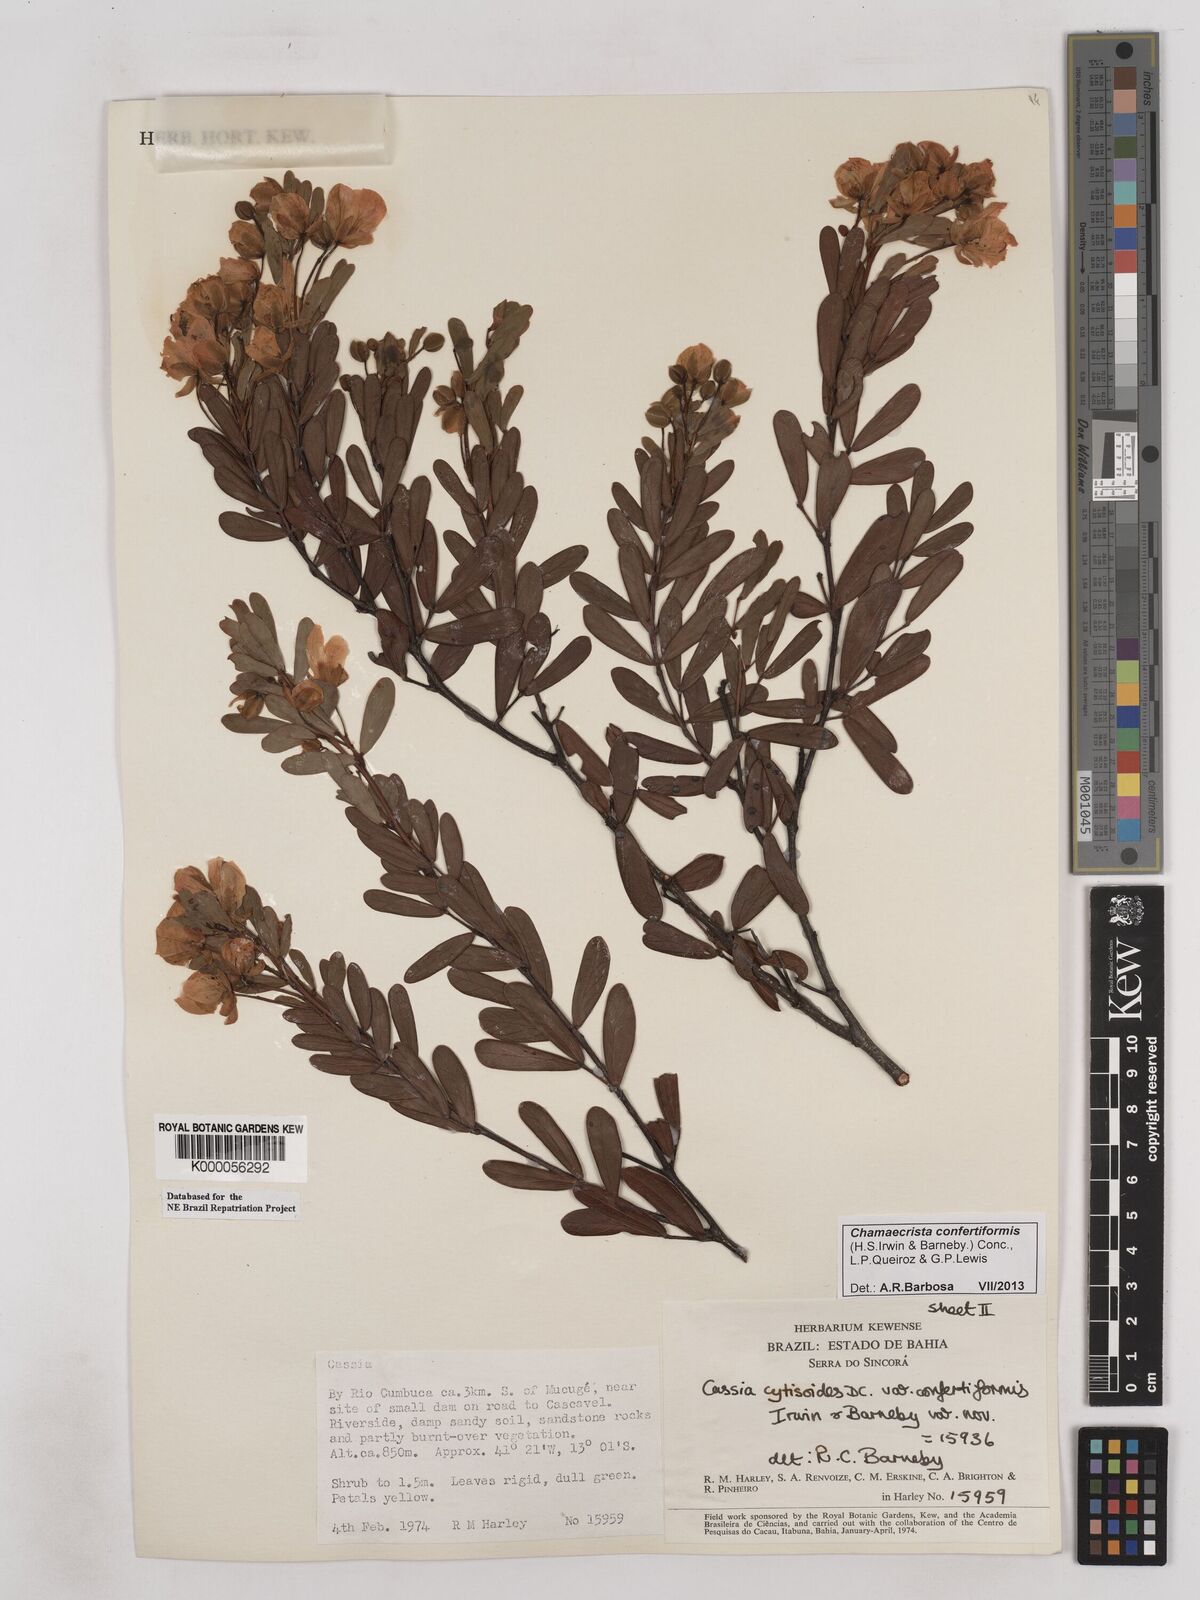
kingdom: Plantae
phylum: Tracheophyta
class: Magnoliopsida
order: Fabales
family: Fabaceae
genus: Chamaecrista
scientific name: Chamaecrista confertiformis
